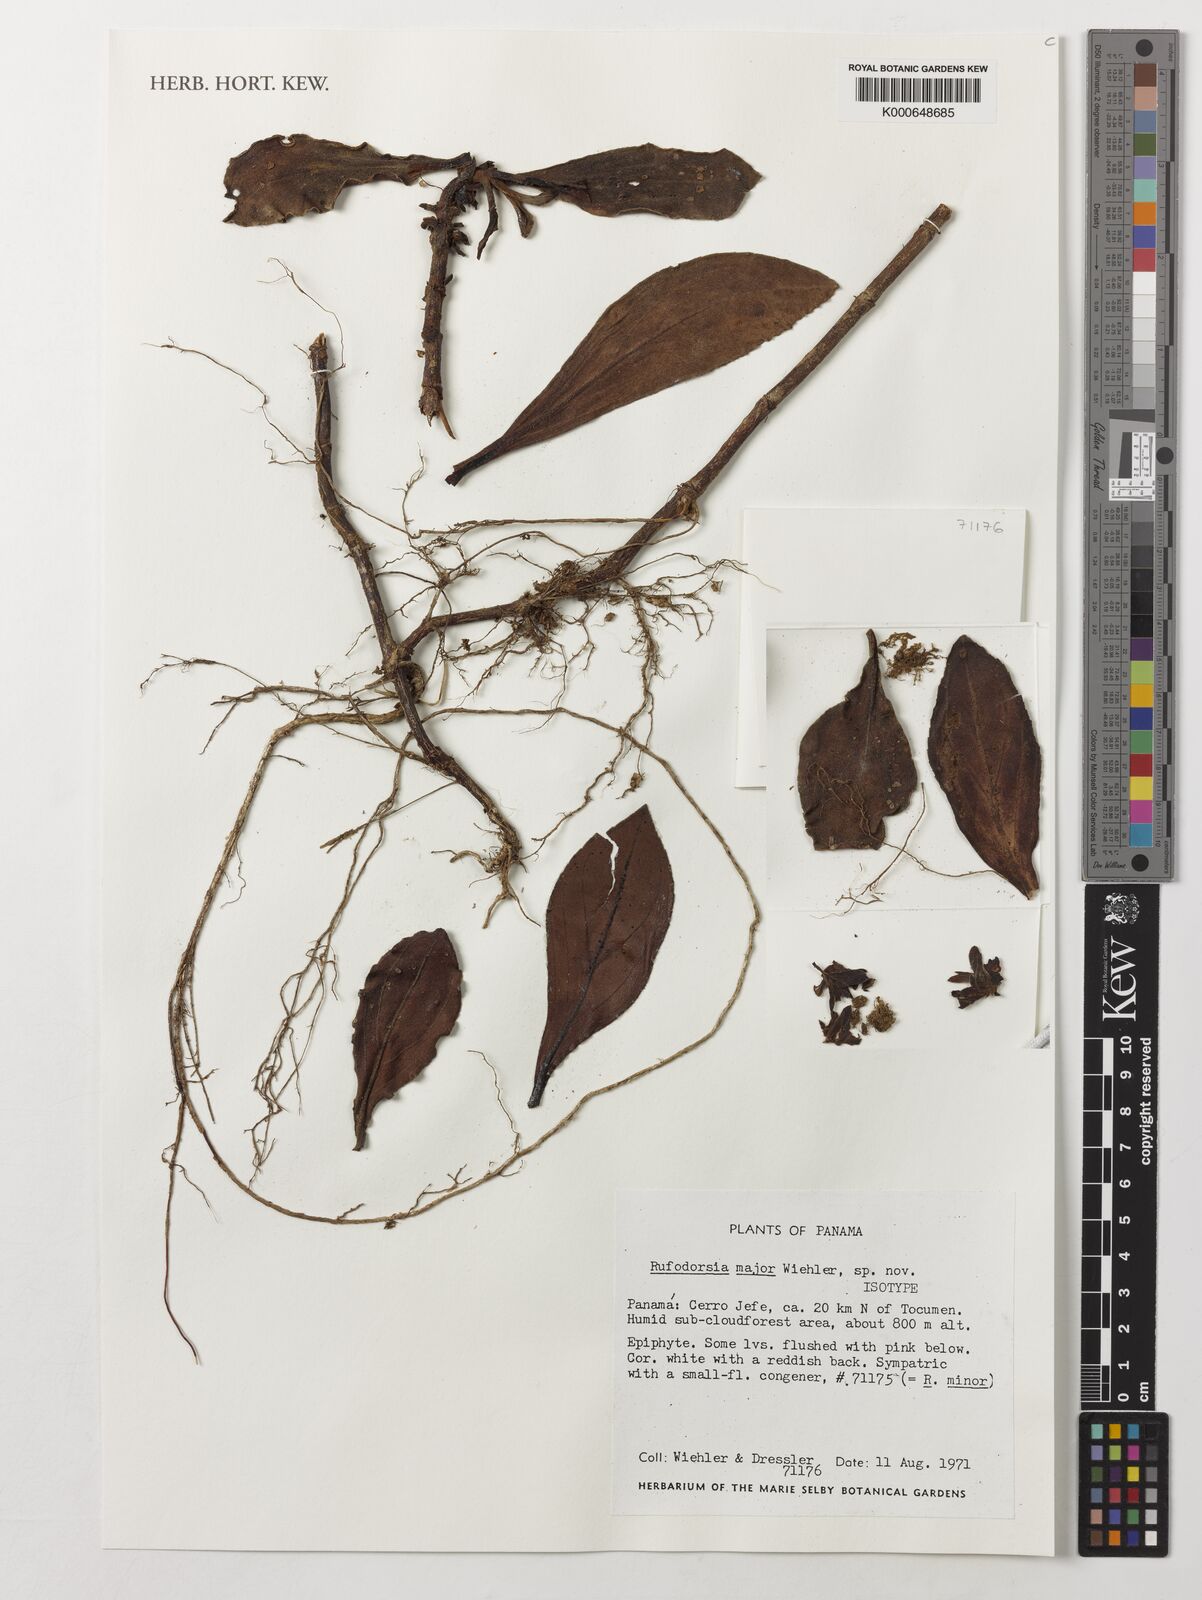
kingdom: Plantae
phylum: Tracheophyta
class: Magnoliopsida
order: Lamiales
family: Gesneriaceae
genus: Rufodorsia
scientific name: Rufodorsia major
